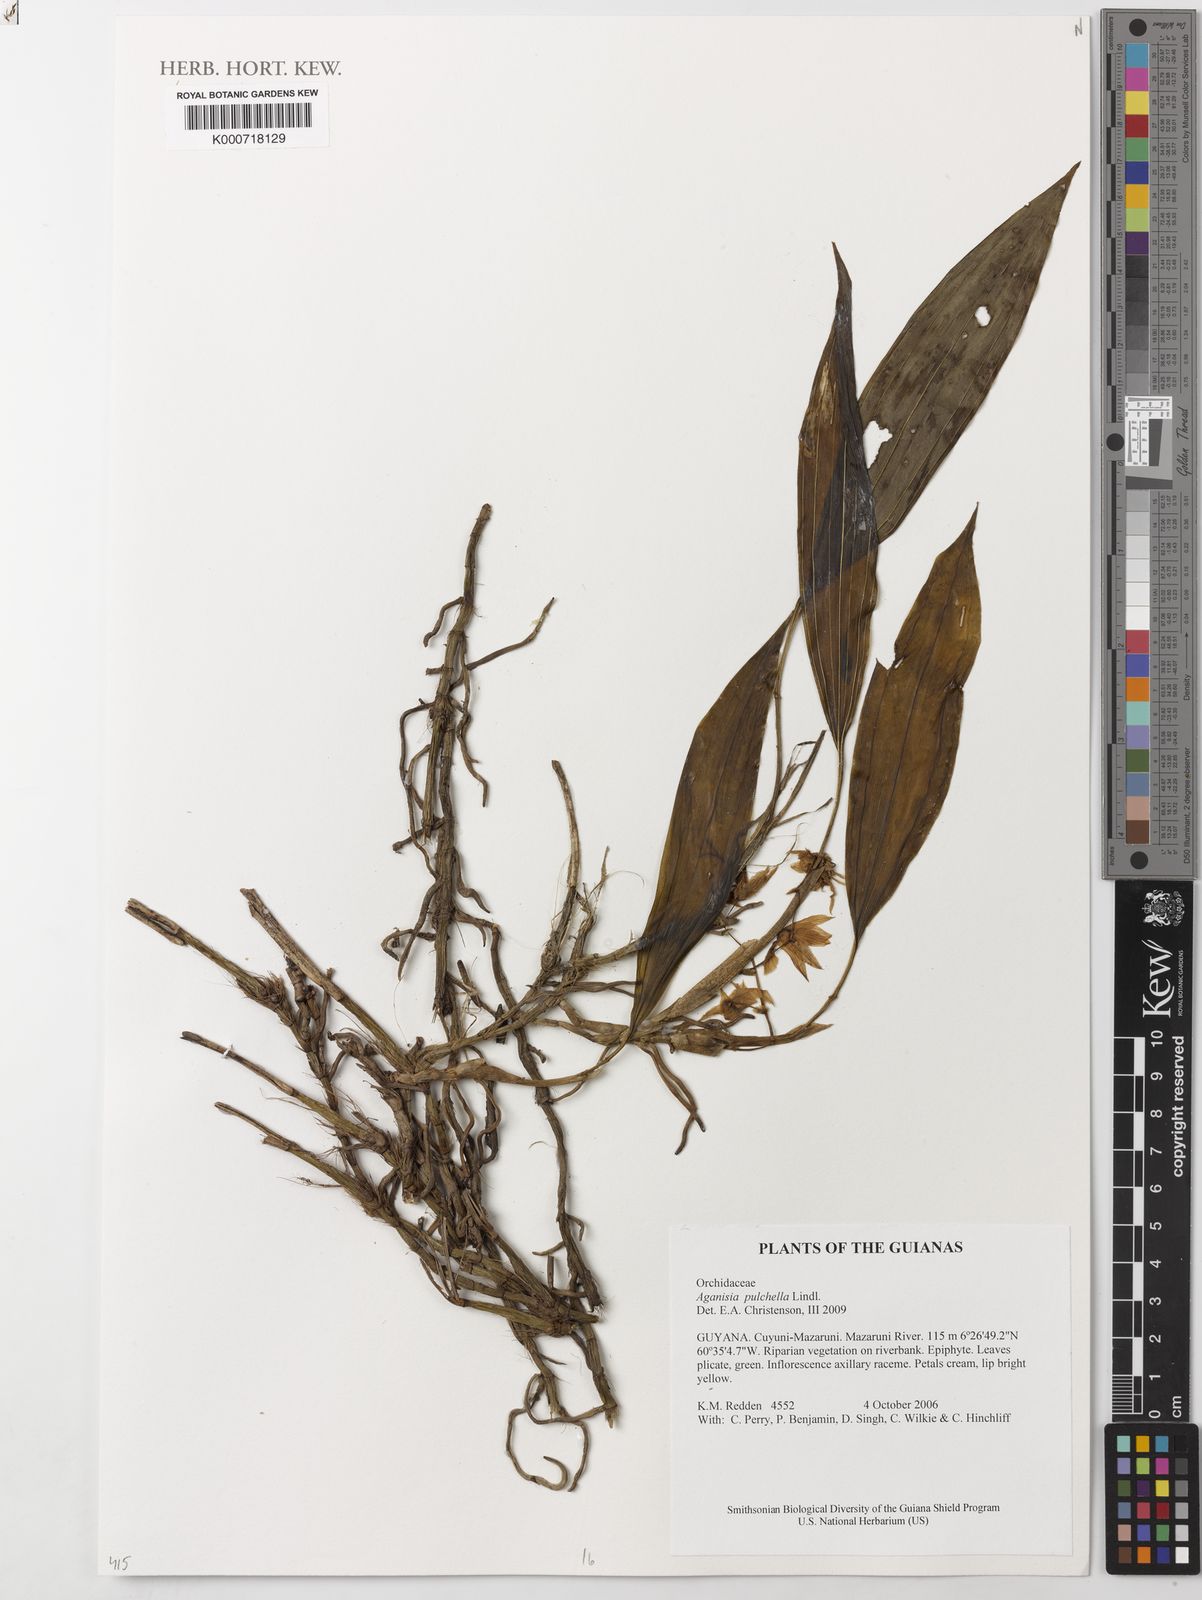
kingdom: Plantae
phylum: Tracheophyta
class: Liliopsida
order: Asparagales
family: Orchidaceae
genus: Aganisia
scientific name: Aganisia pulchella
